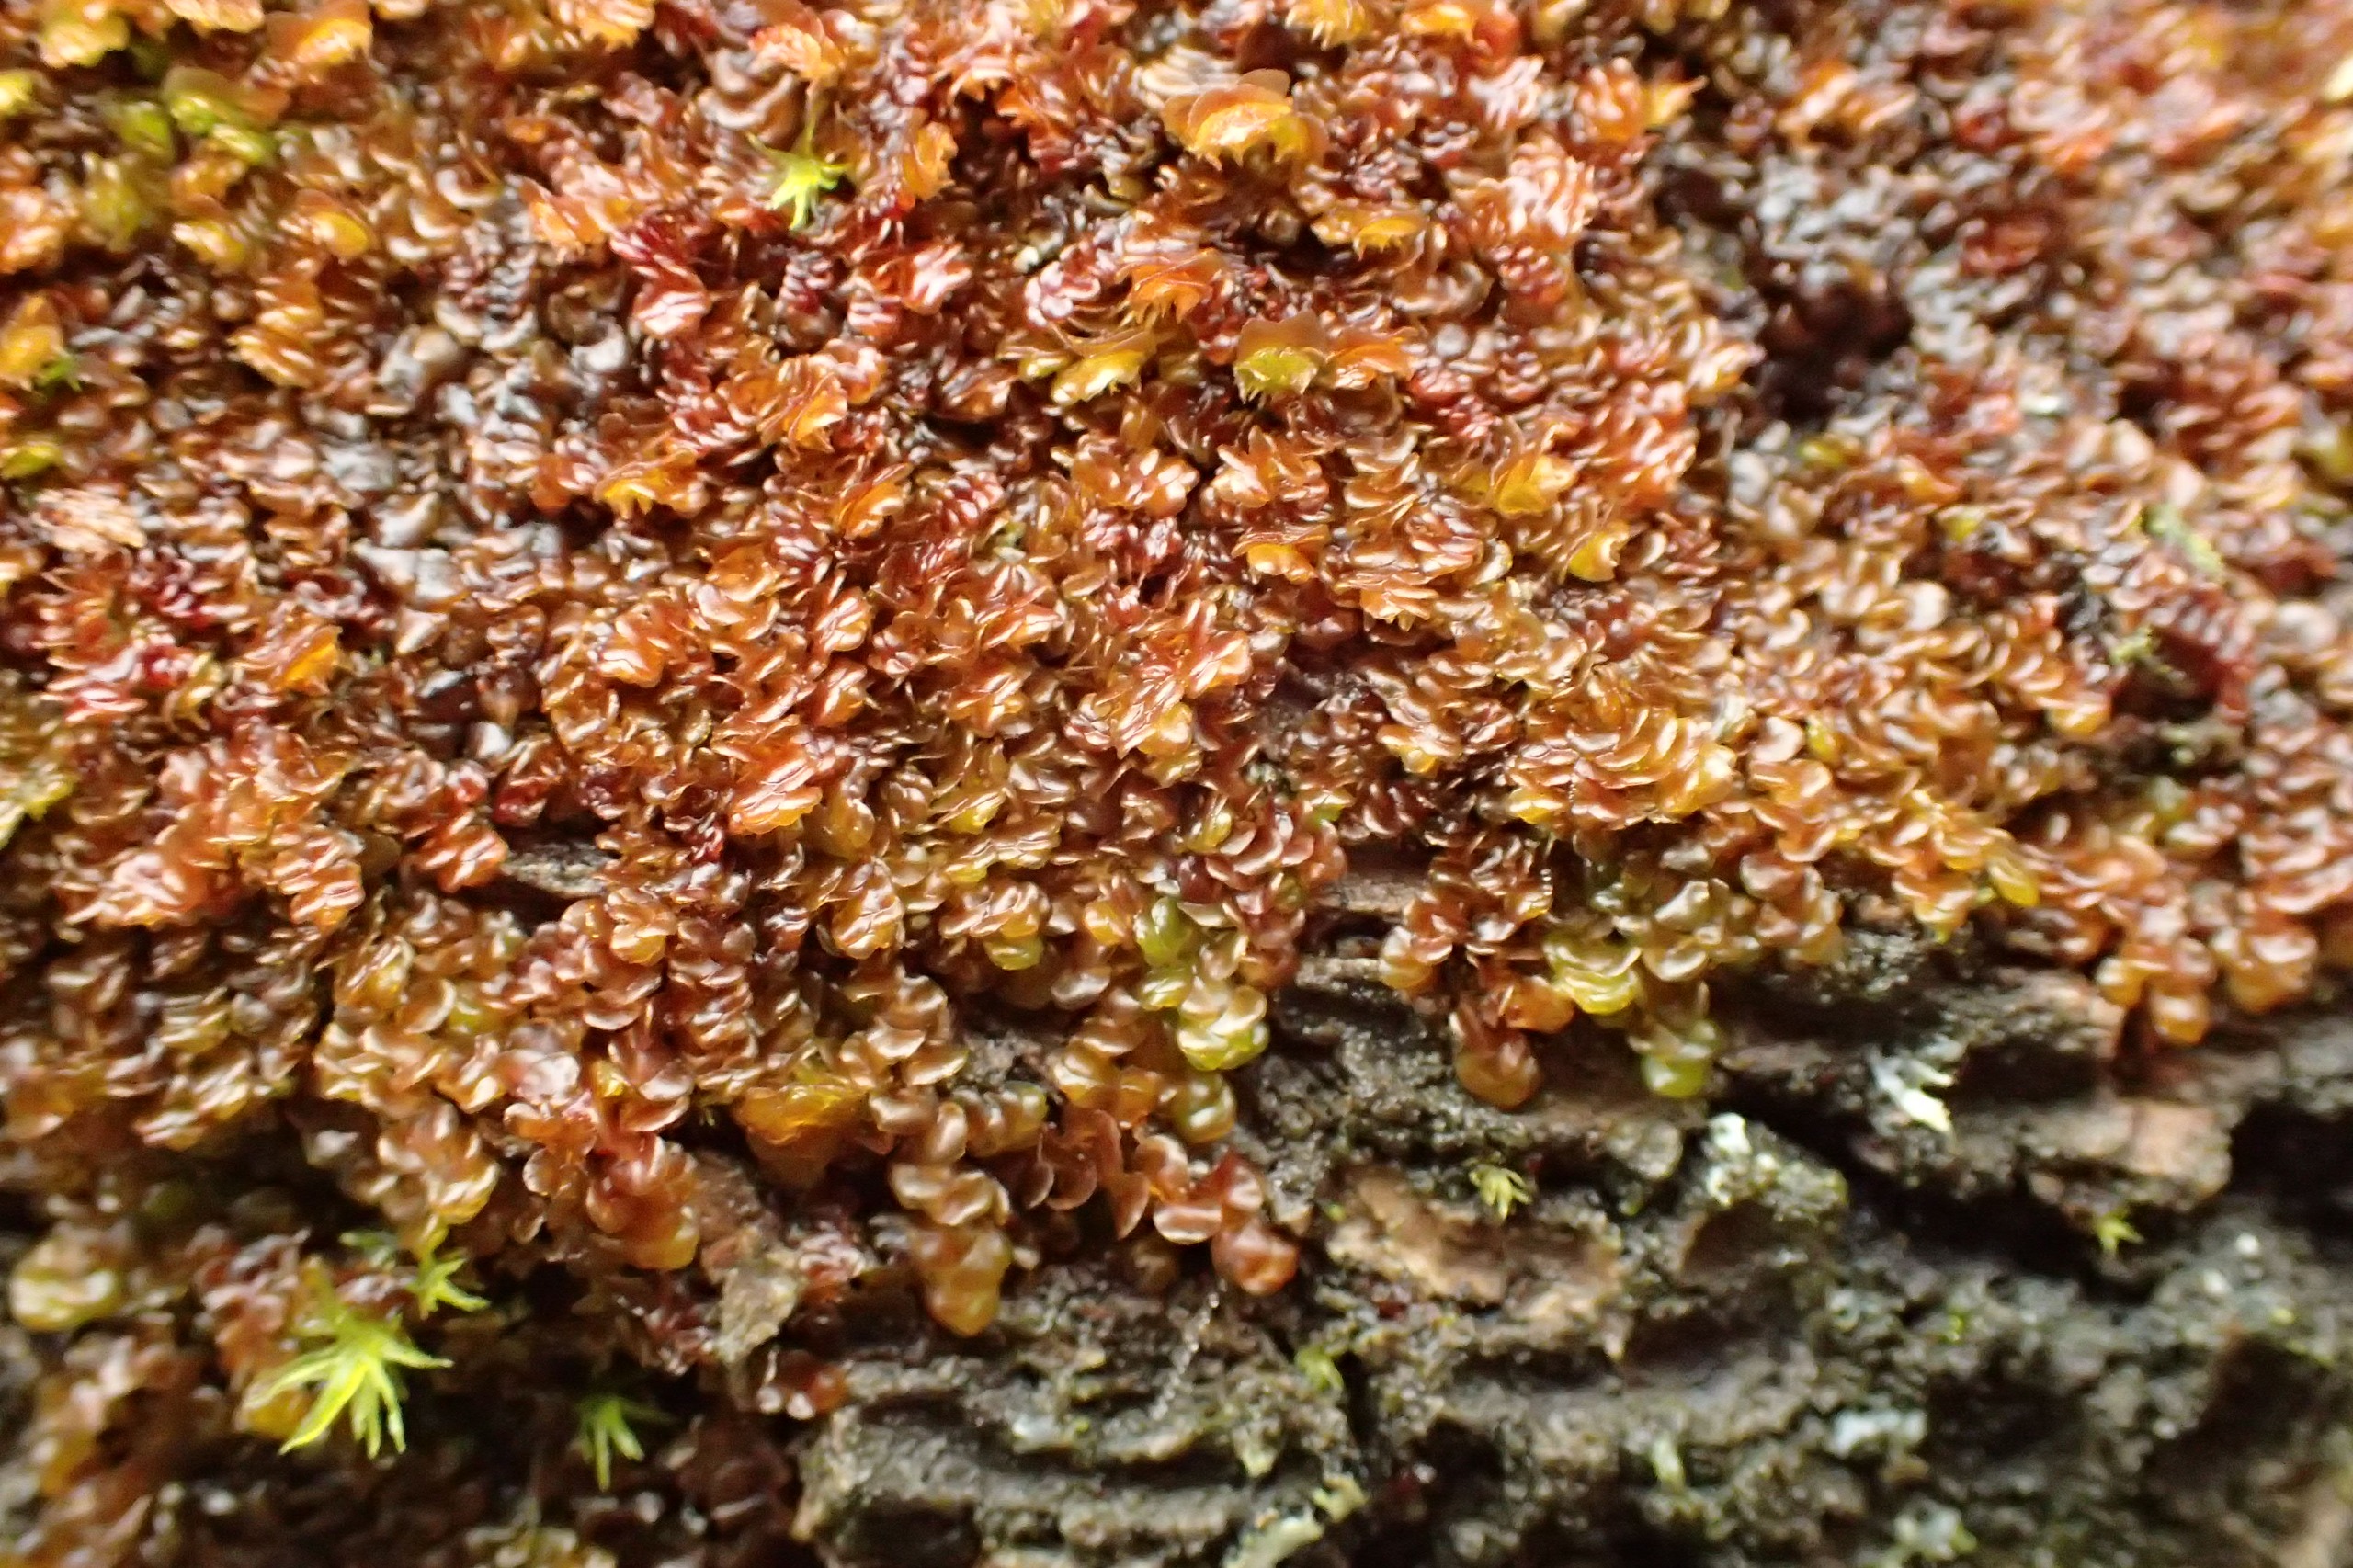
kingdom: Plantae
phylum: Marchantiophyta
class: Jungermanniopsida
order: Porellales
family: Frullaniaceae
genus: Frullania
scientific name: Frullania dilatata
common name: Mat bronzemos
